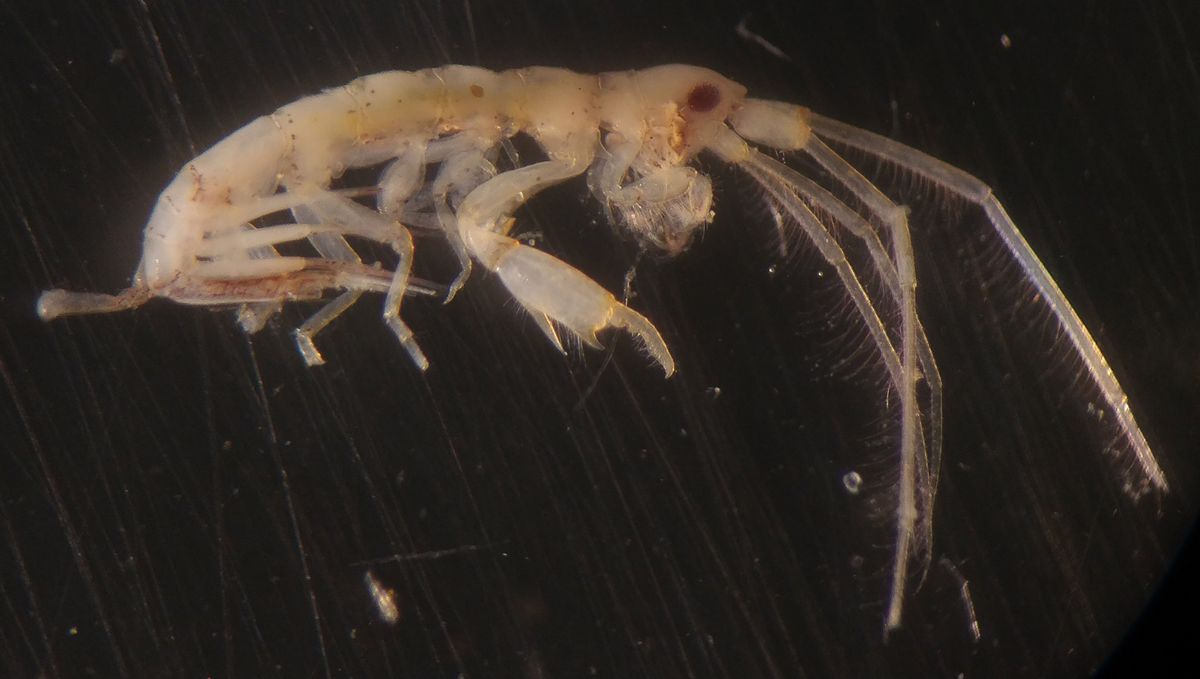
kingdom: Animalia
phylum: Arthropoda
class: Malacostraca
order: Amphipoda
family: Dulichiidae
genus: Dyopedos
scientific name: Dyopedos porrectus
